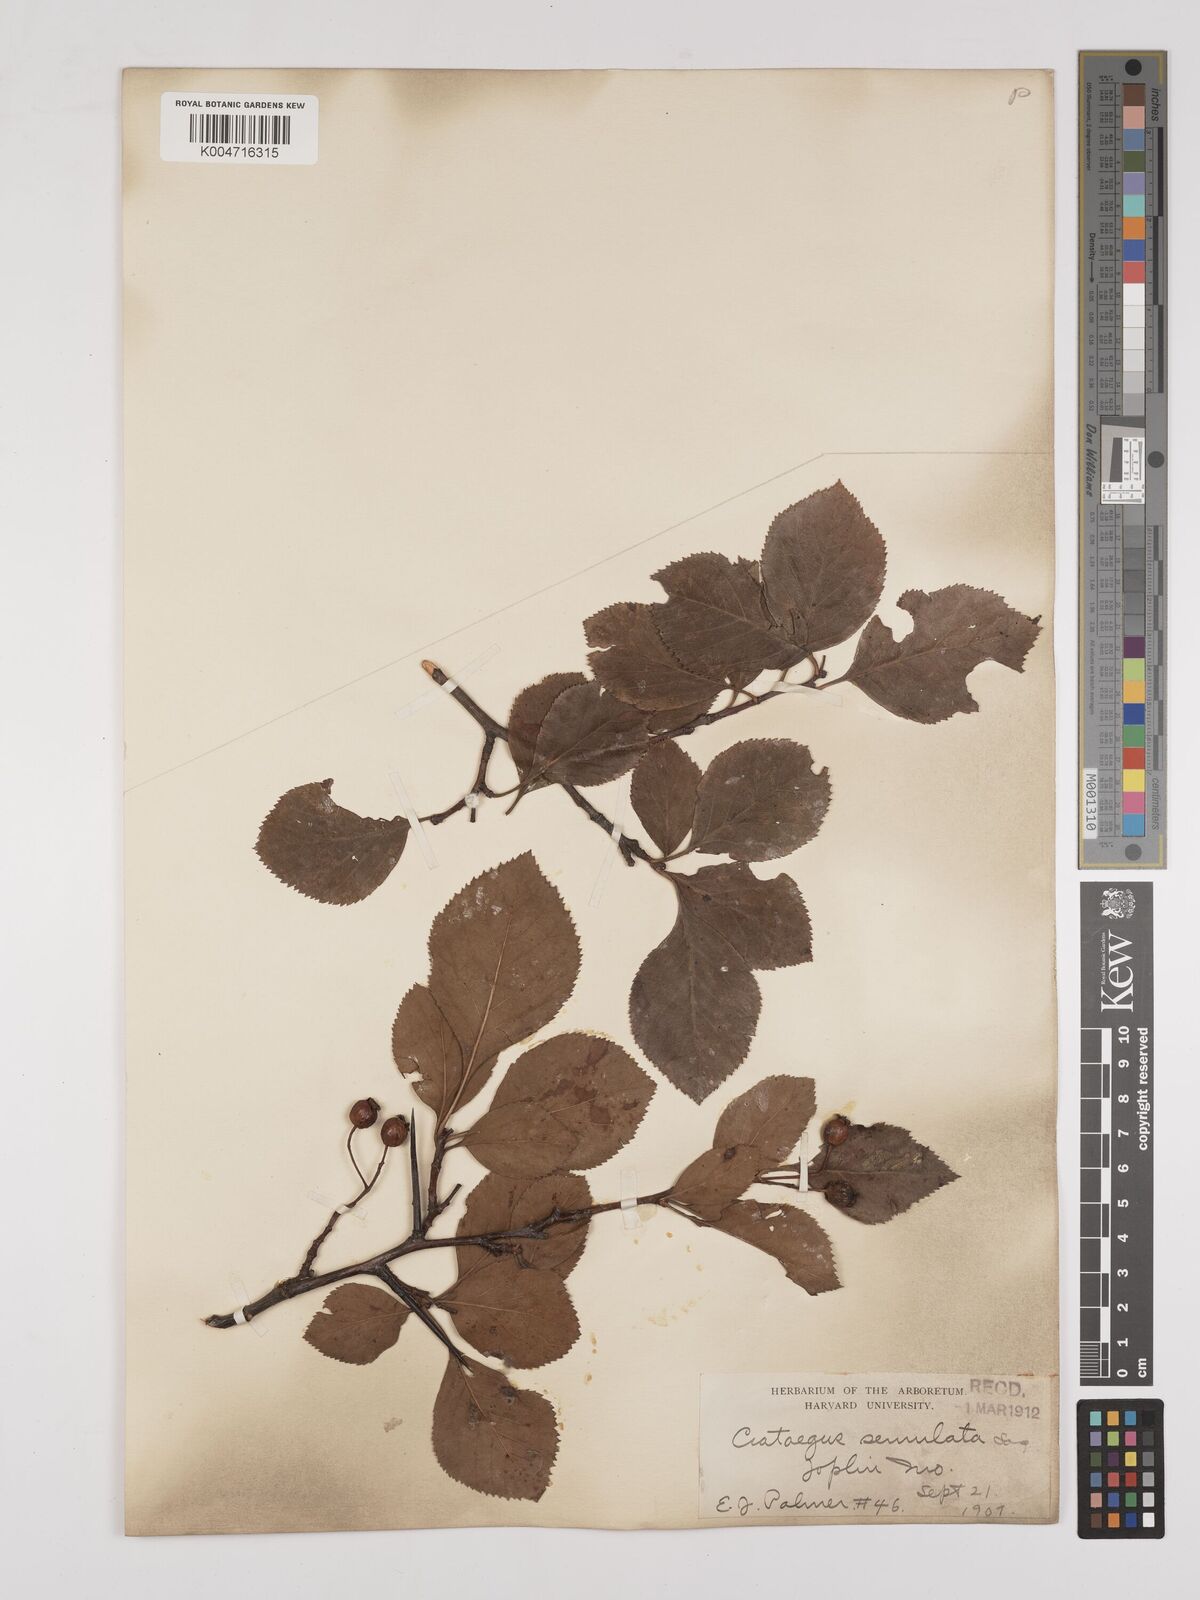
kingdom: Plantae
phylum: Tracheophyta
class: Magnoliopsida
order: Rosales
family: Rosaceae
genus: Heteromeles
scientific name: Heteromeles arbutifolia
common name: California-holly
